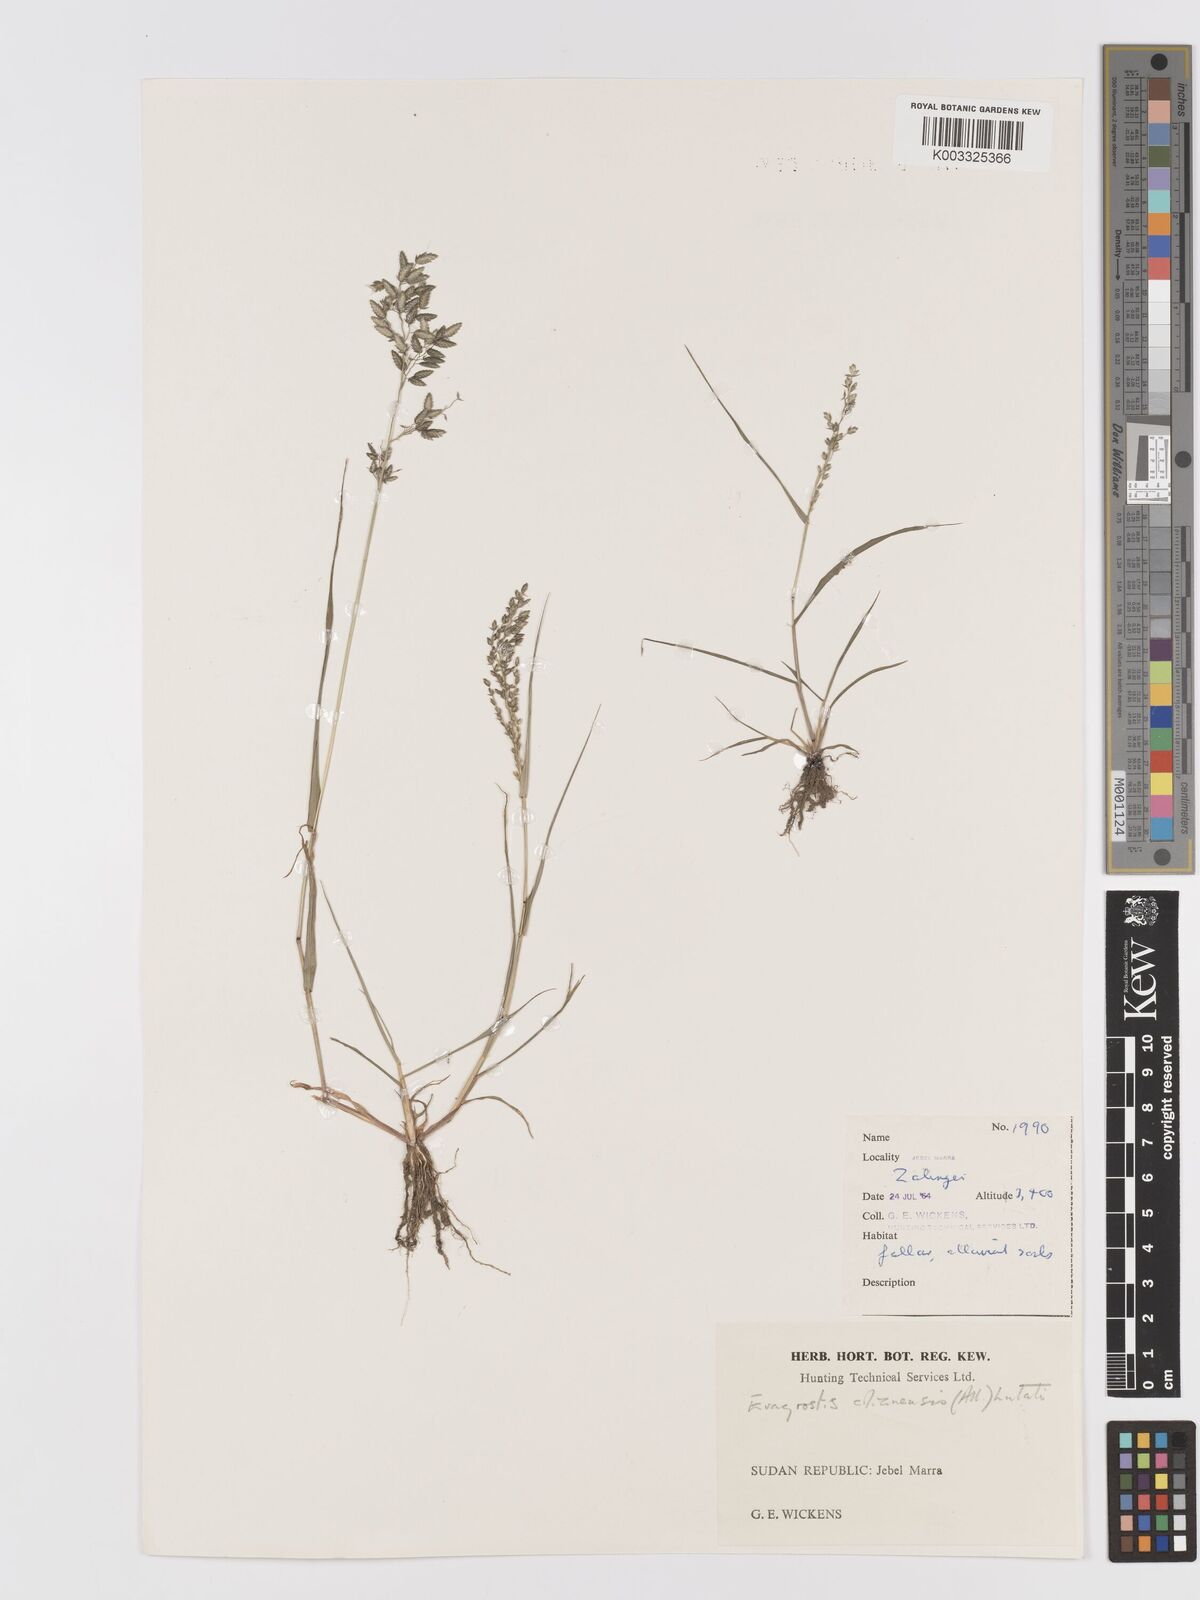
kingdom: Plantae
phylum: Tracheophyta
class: Liliopsida
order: Poales
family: Poaceae
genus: Eragrostis
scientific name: Eragrostis cilianensis
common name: Stinkgrass
